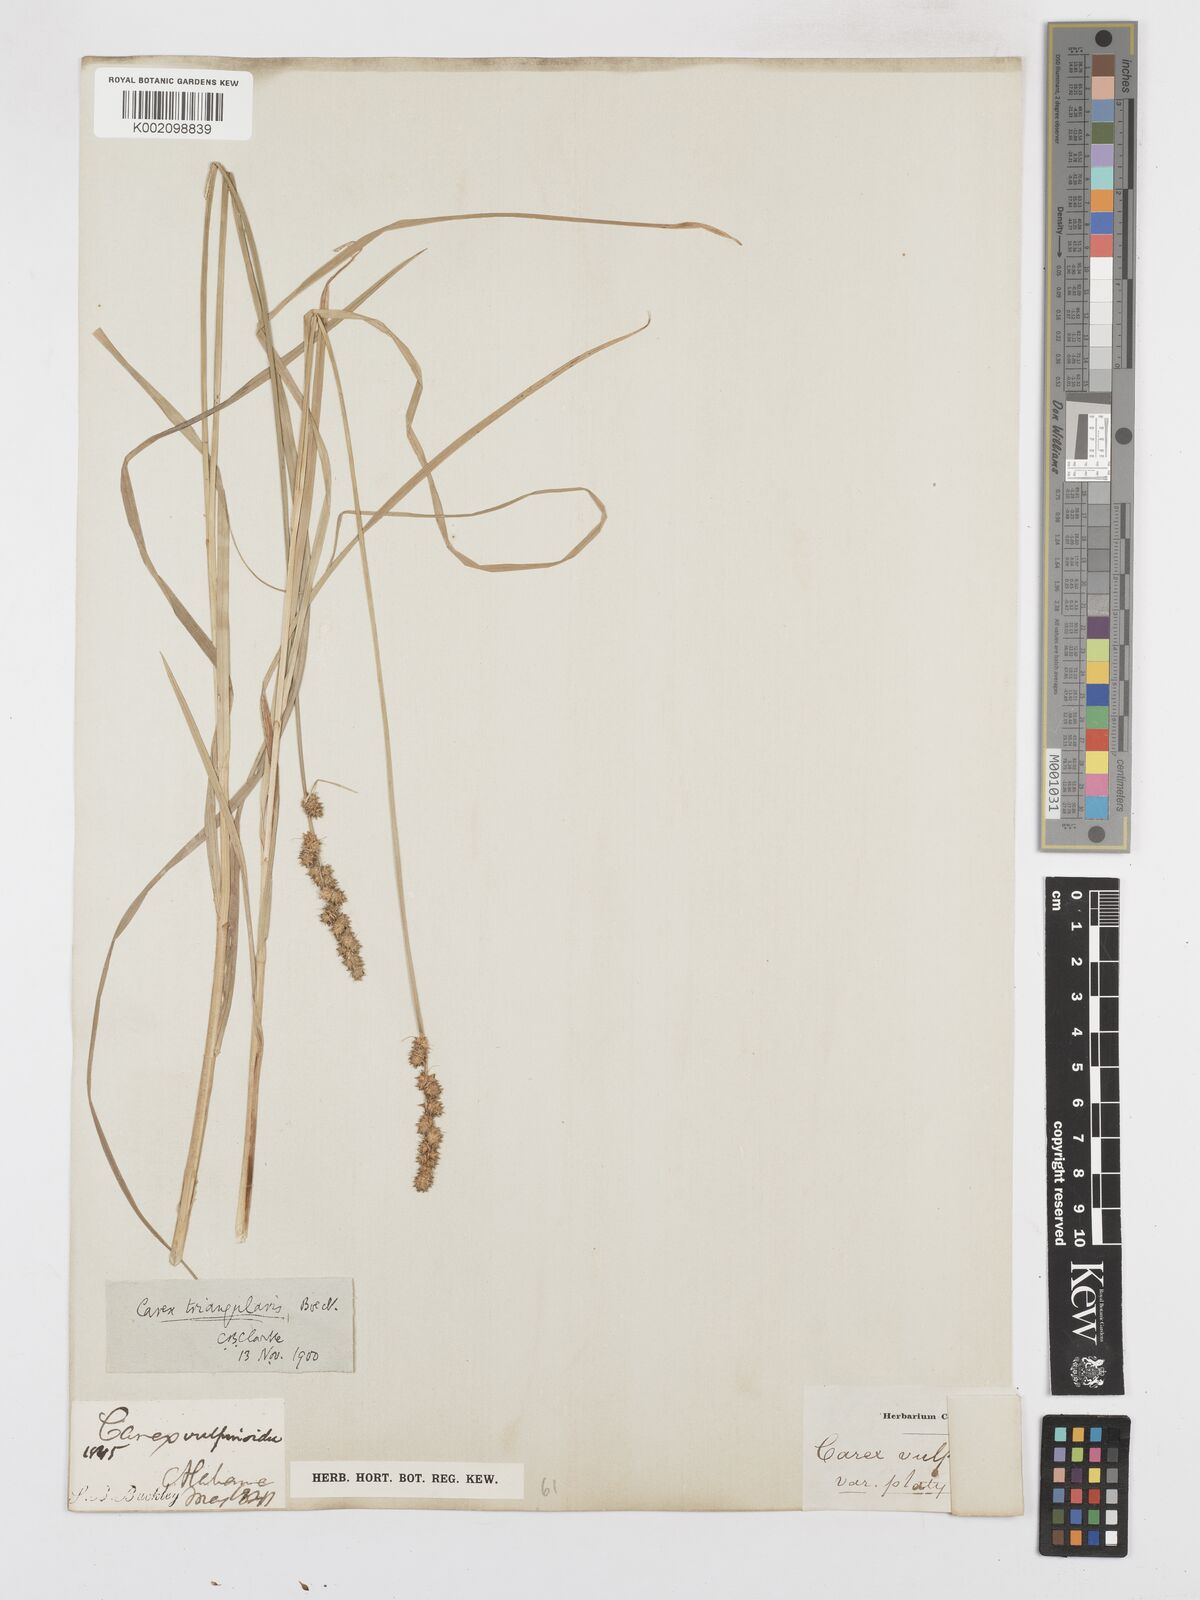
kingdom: Plantae
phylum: Tracheophyta
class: Liliopsida
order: Poales
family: Cyperaceae
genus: Carex
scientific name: Carex triangularis
